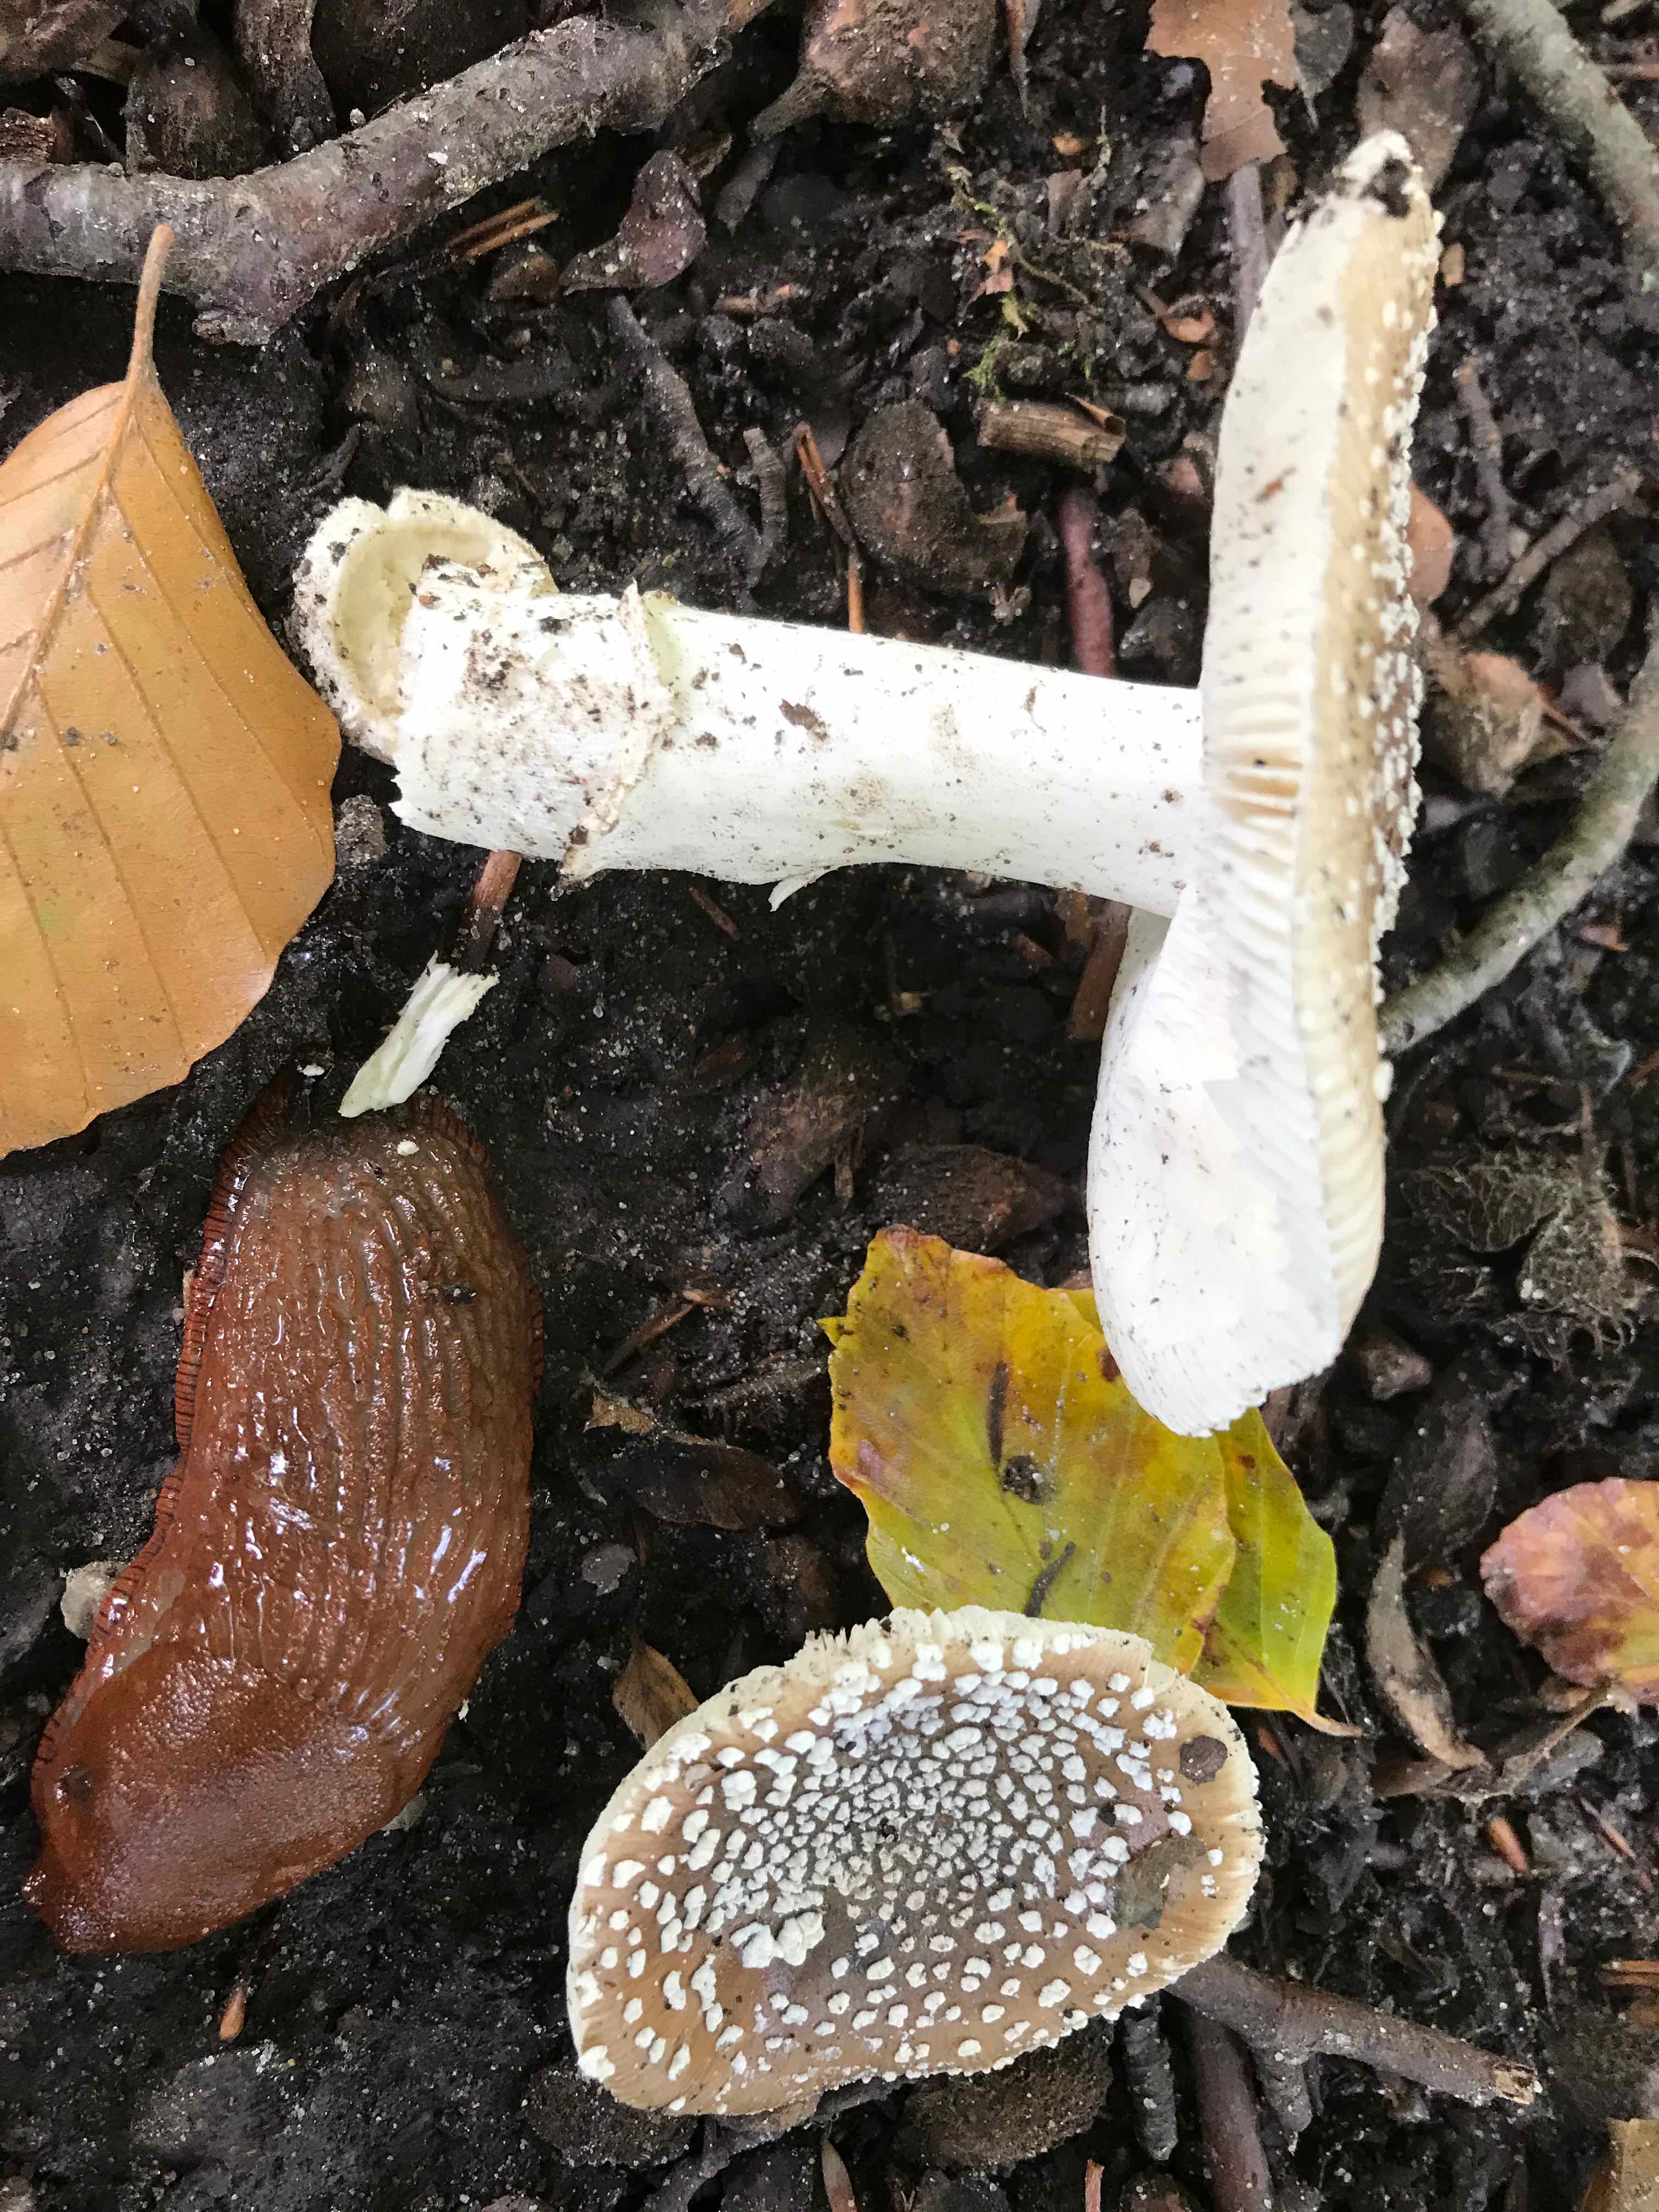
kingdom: Fungi
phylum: Basidiomycota
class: Agaricomycetes
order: Agaricales
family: Amanitaceae
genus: Amanita
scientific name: Amanita pantherina
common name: panter-fluesvamp
